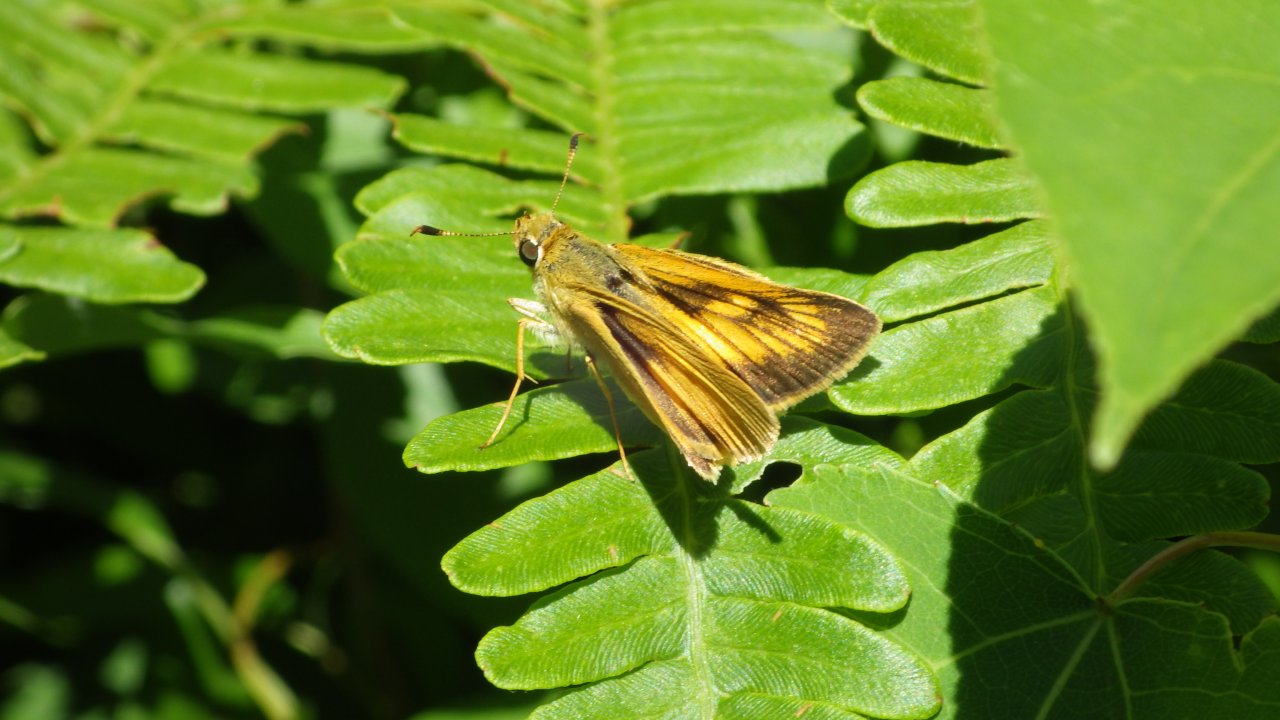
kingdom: Animalia
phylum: Arthropoda
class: Insecta
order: Lepidoptera
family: Hesperiidae
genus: Atrytone
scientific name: Atrytone delaware
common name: Delaware Skipper
